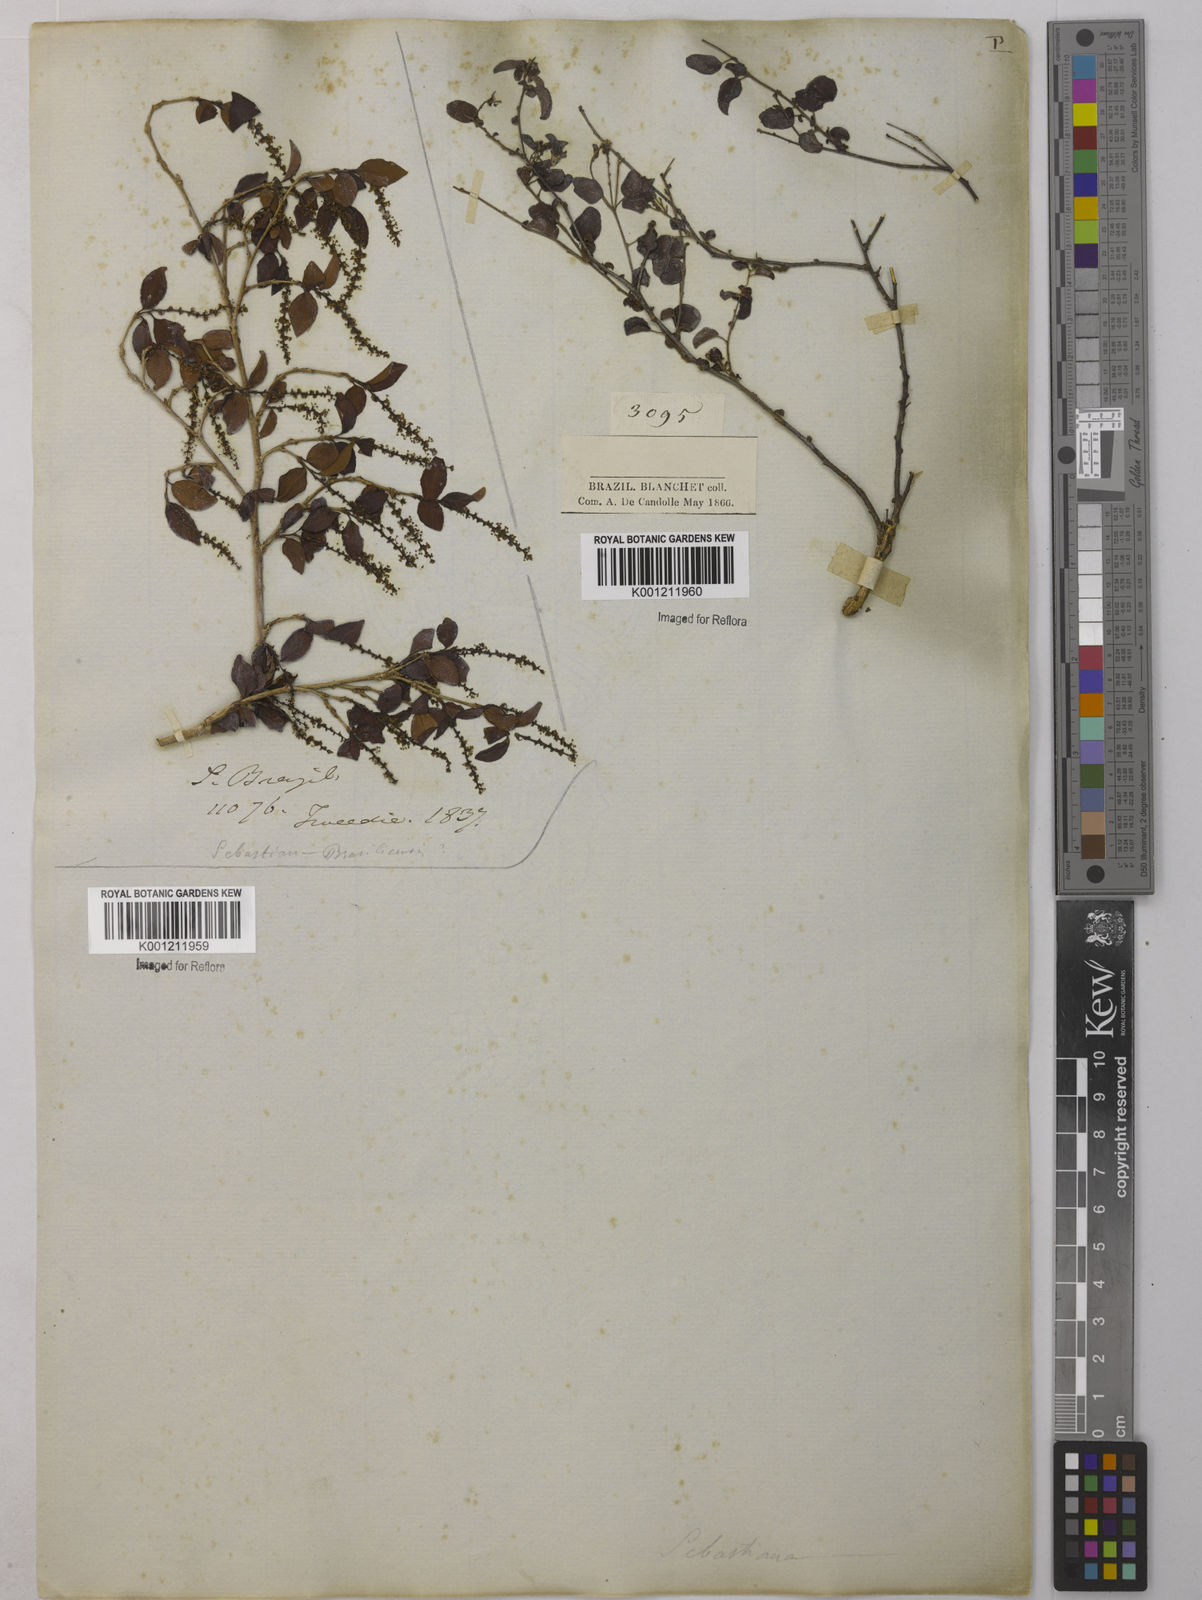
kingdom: Plantae
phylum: Tracheophyta
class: Magnoliopsida
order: Malpighiales
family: Euphorbiaceae
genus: Sebastiania
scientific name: Sebastiania
